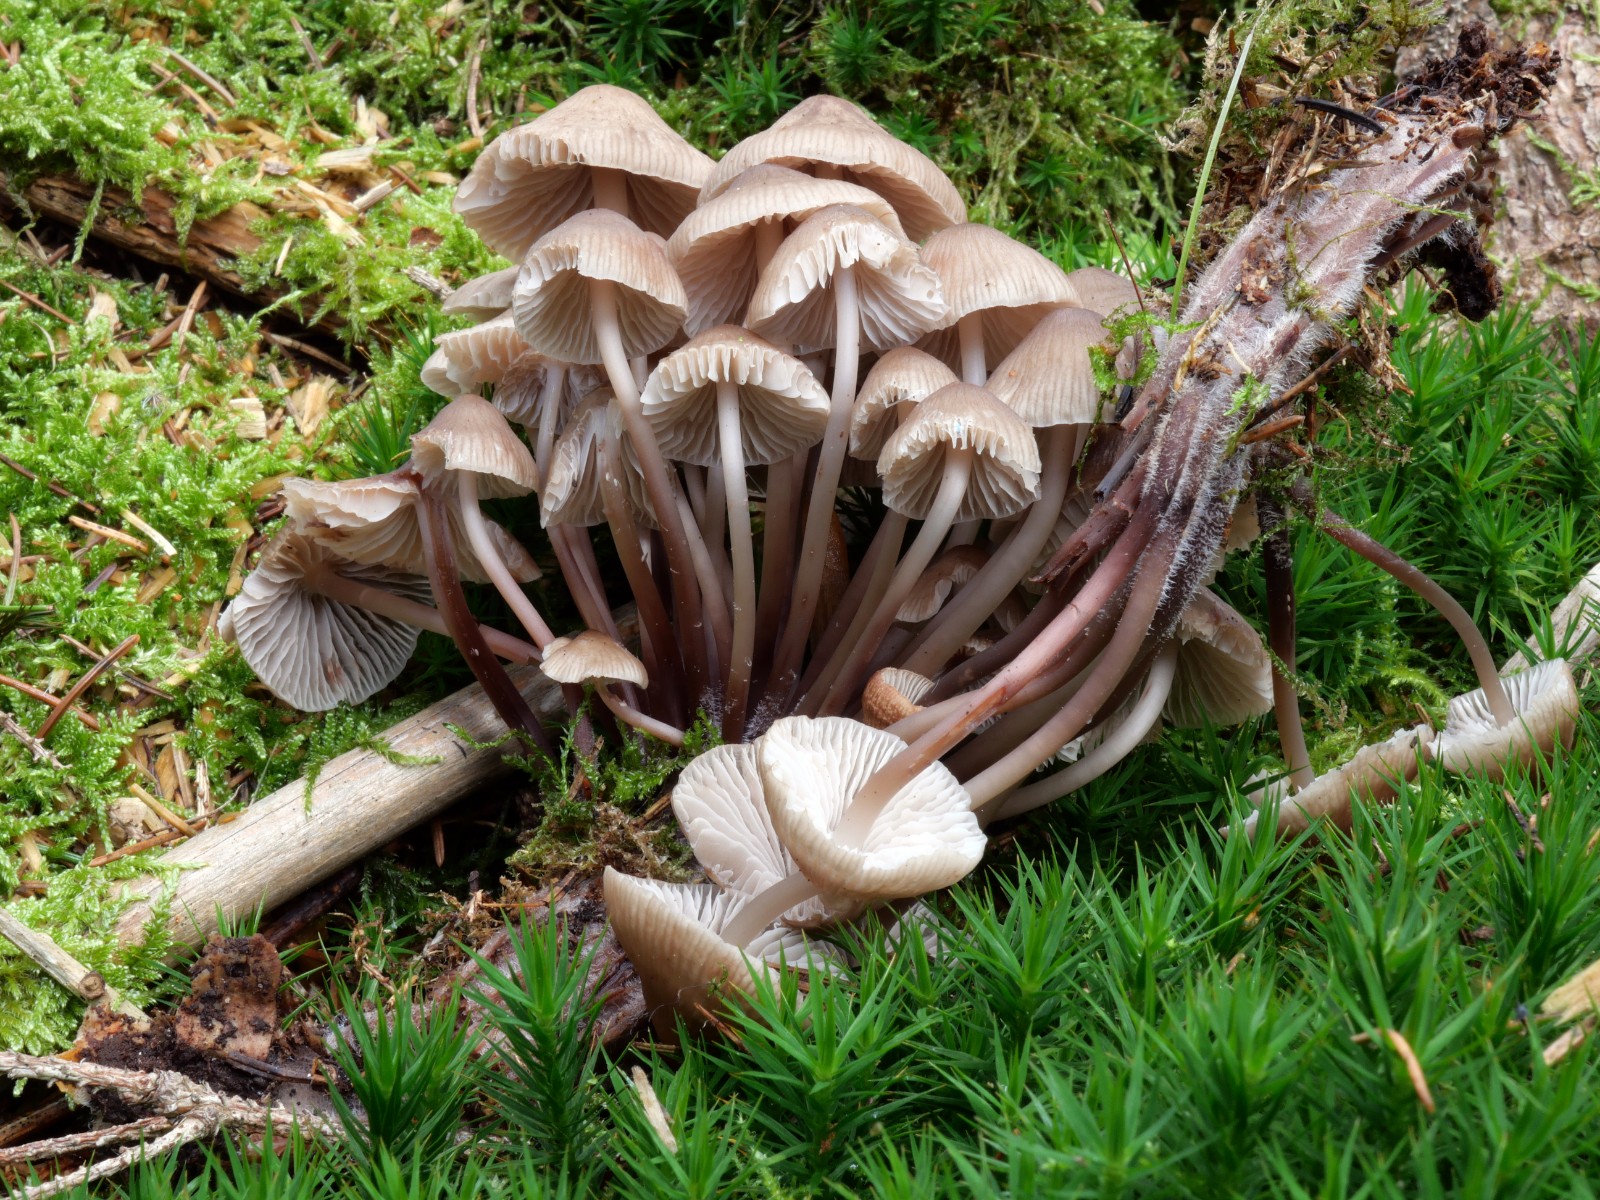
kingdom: Fungi
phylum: Basidiomycota
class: Agaricomycetes
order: Agaricales
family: Mycenaceae
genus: Mycena
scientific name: Mycena maculata
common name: rødplettet huesvamp
